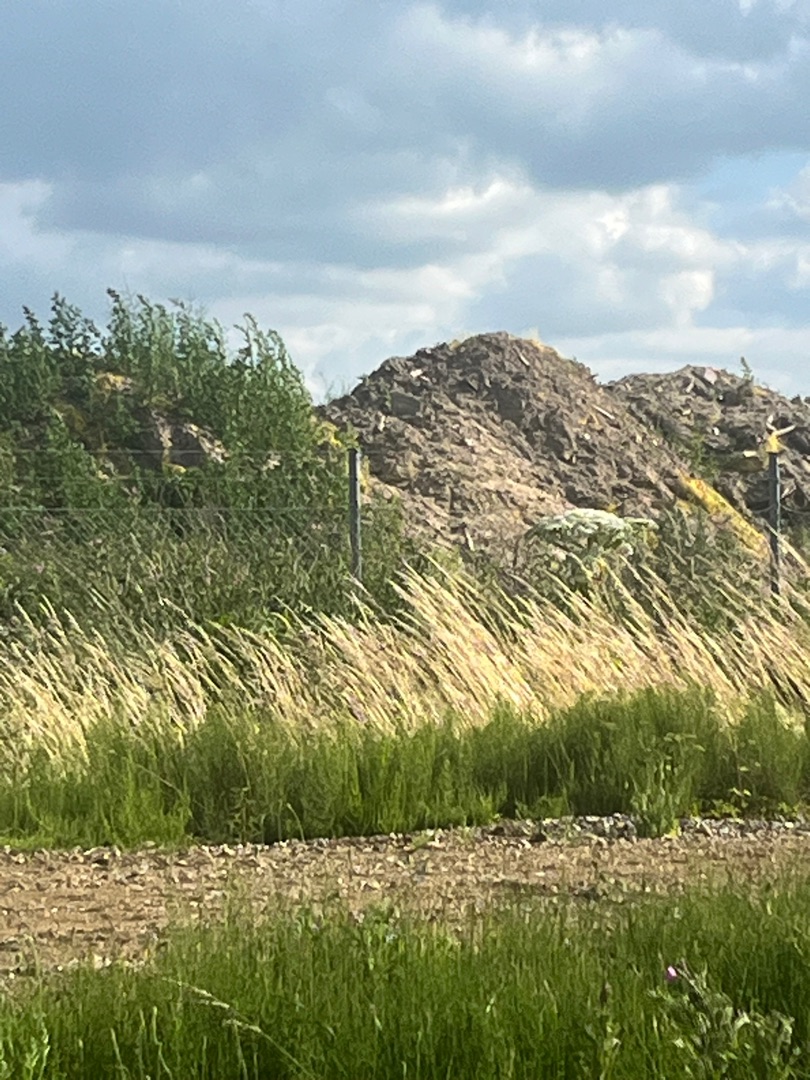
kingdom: Plantae
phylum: Tracheophyta
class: Magnoliopsida
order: Apiales
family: Apiaceae
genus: Heracleum
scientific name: Heracleum mantegazzianum
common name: Kæmpe-bjørneklo
